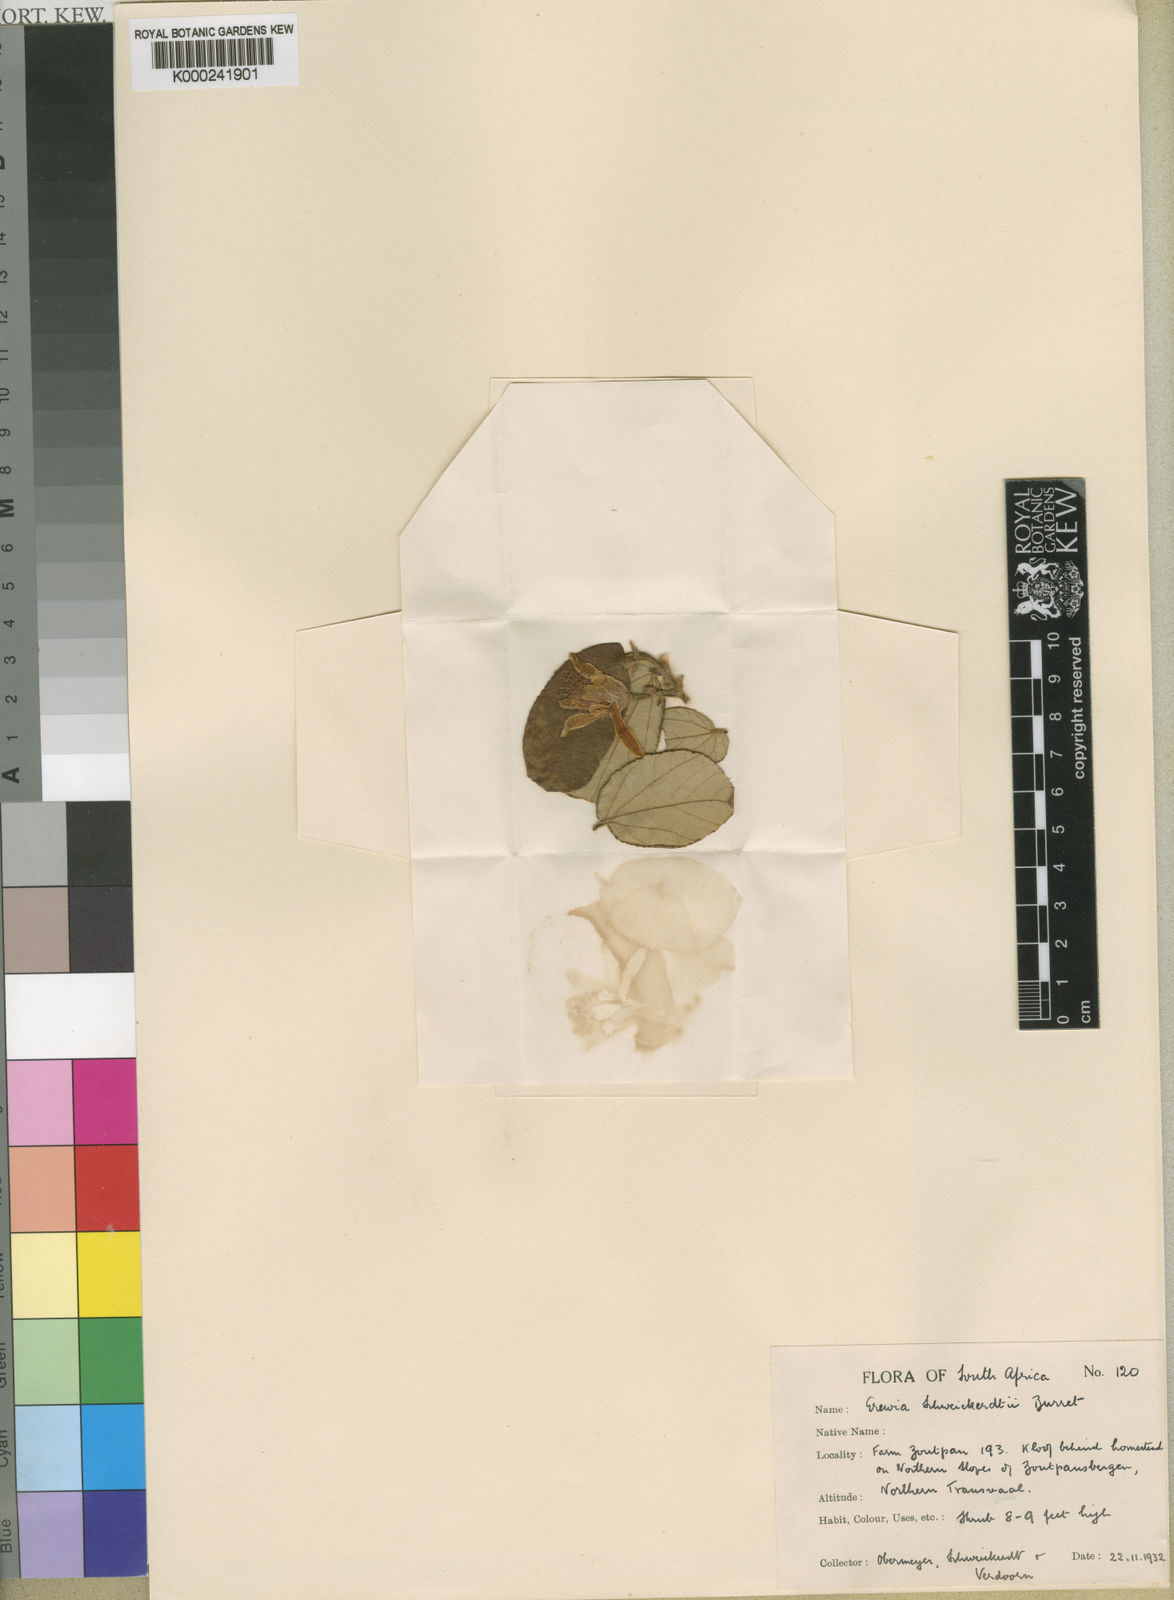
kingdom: Plantae
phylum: Tracheophyta
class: Magnoliopsida
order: Malvales
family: Malvaceae
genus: Grewia
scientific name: Grewia hexamita
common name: Giant raisin
